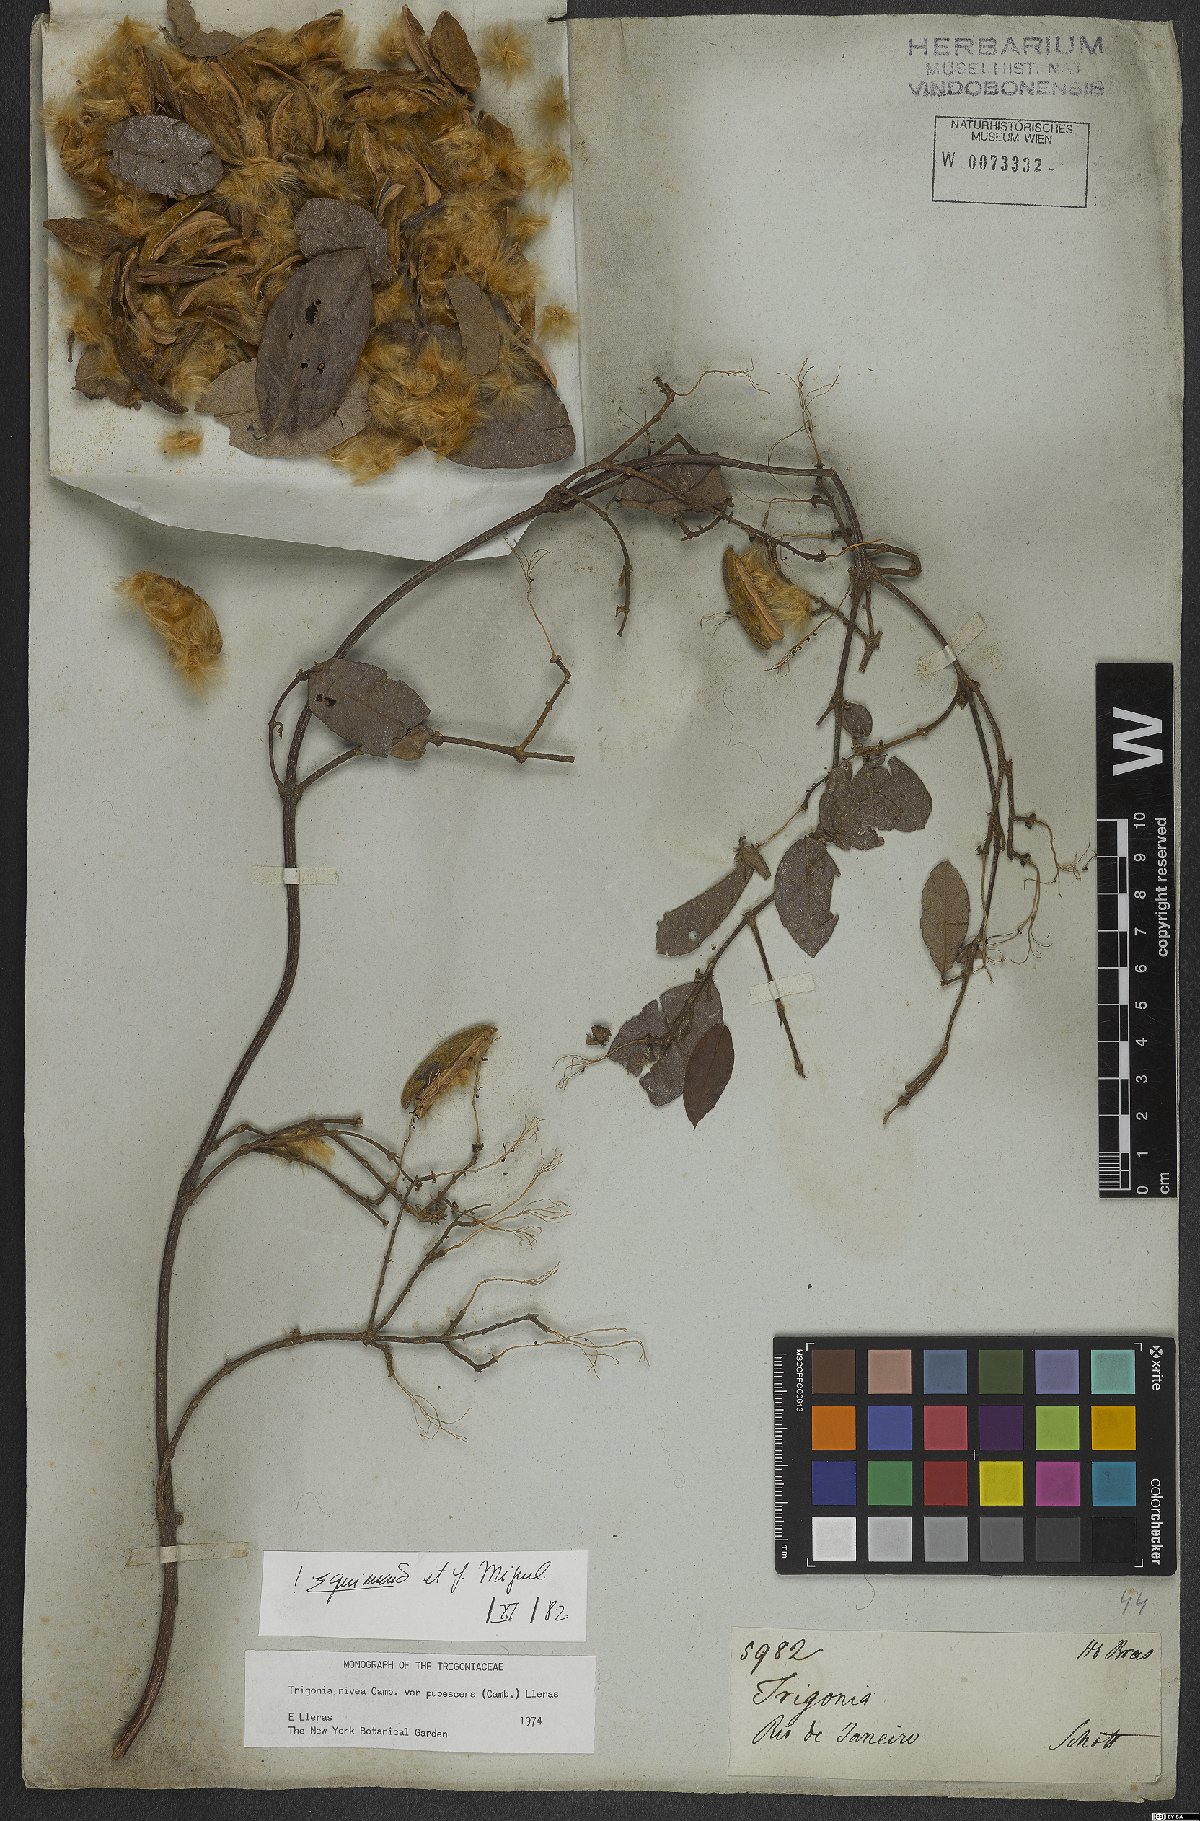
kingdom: Plantae
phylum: Tracheophyta
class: Magnoliopsida
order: Malpighiales
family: Trigoniaceae
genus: Trigonia
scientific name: Trigonia nivea
